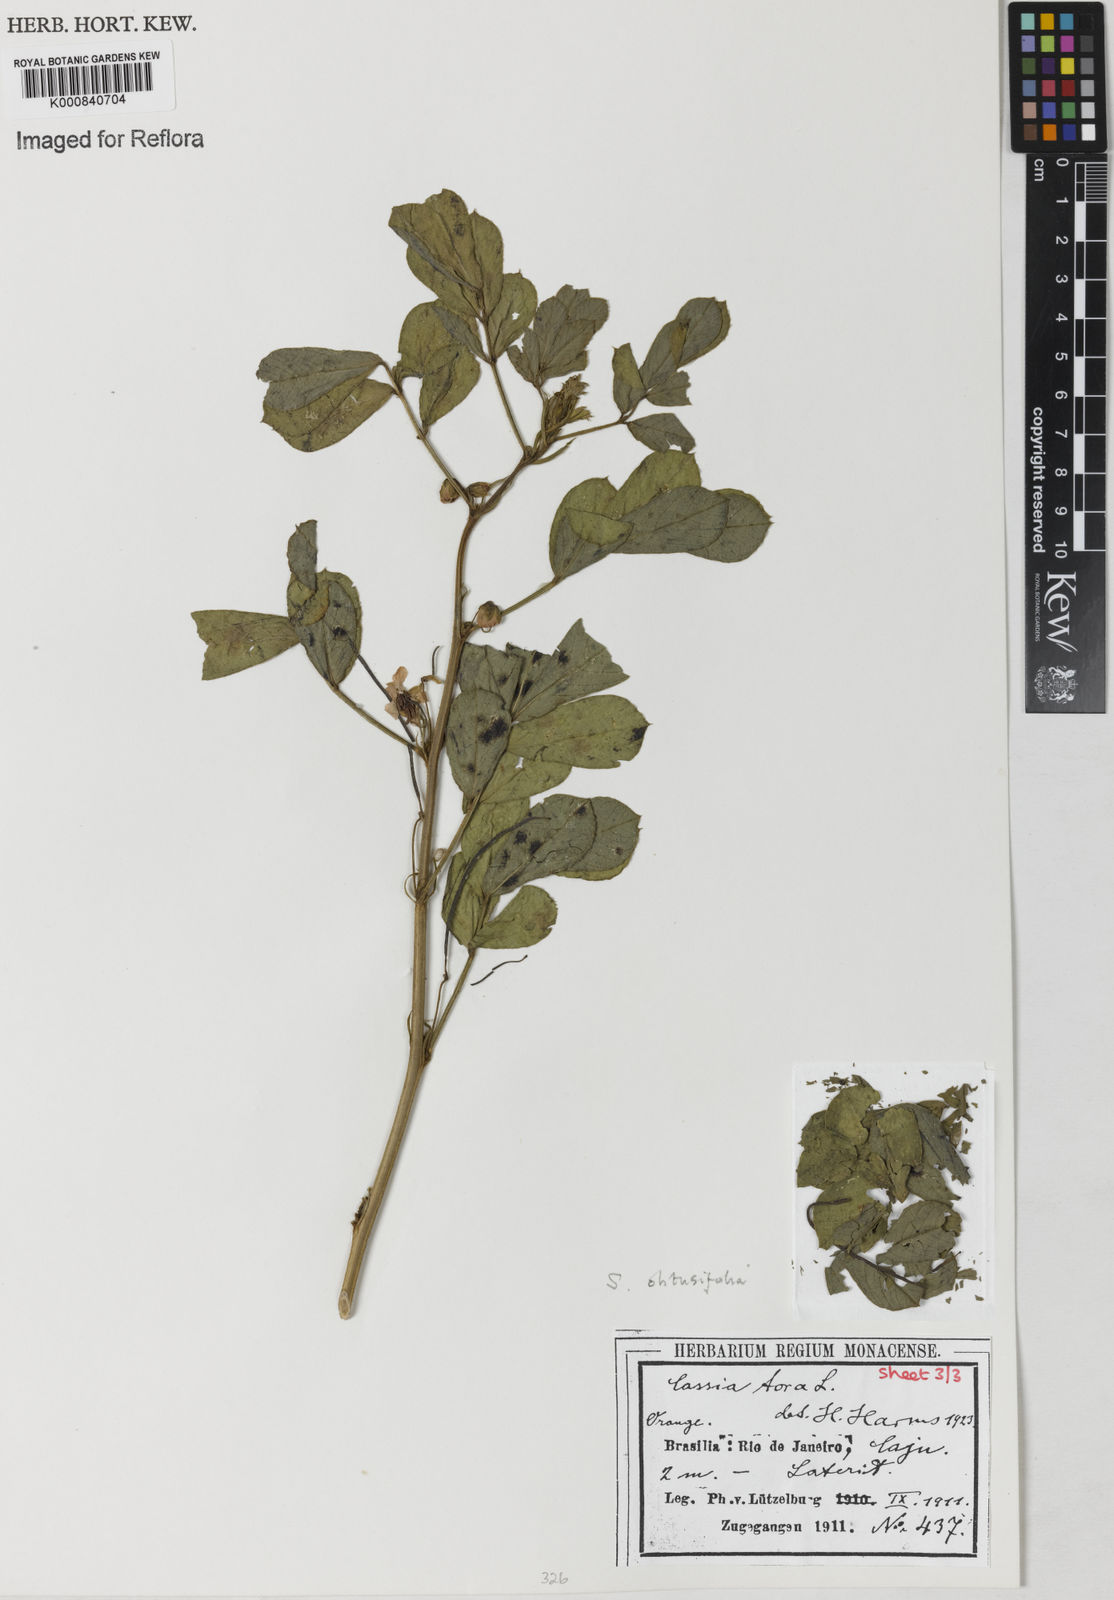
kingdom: Plantae
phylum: Tracheophyta
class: Magnoliopsida
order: Fabales
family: Fabaceae
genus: Senna
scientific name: Senna obtusifolia
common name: Java-bean
